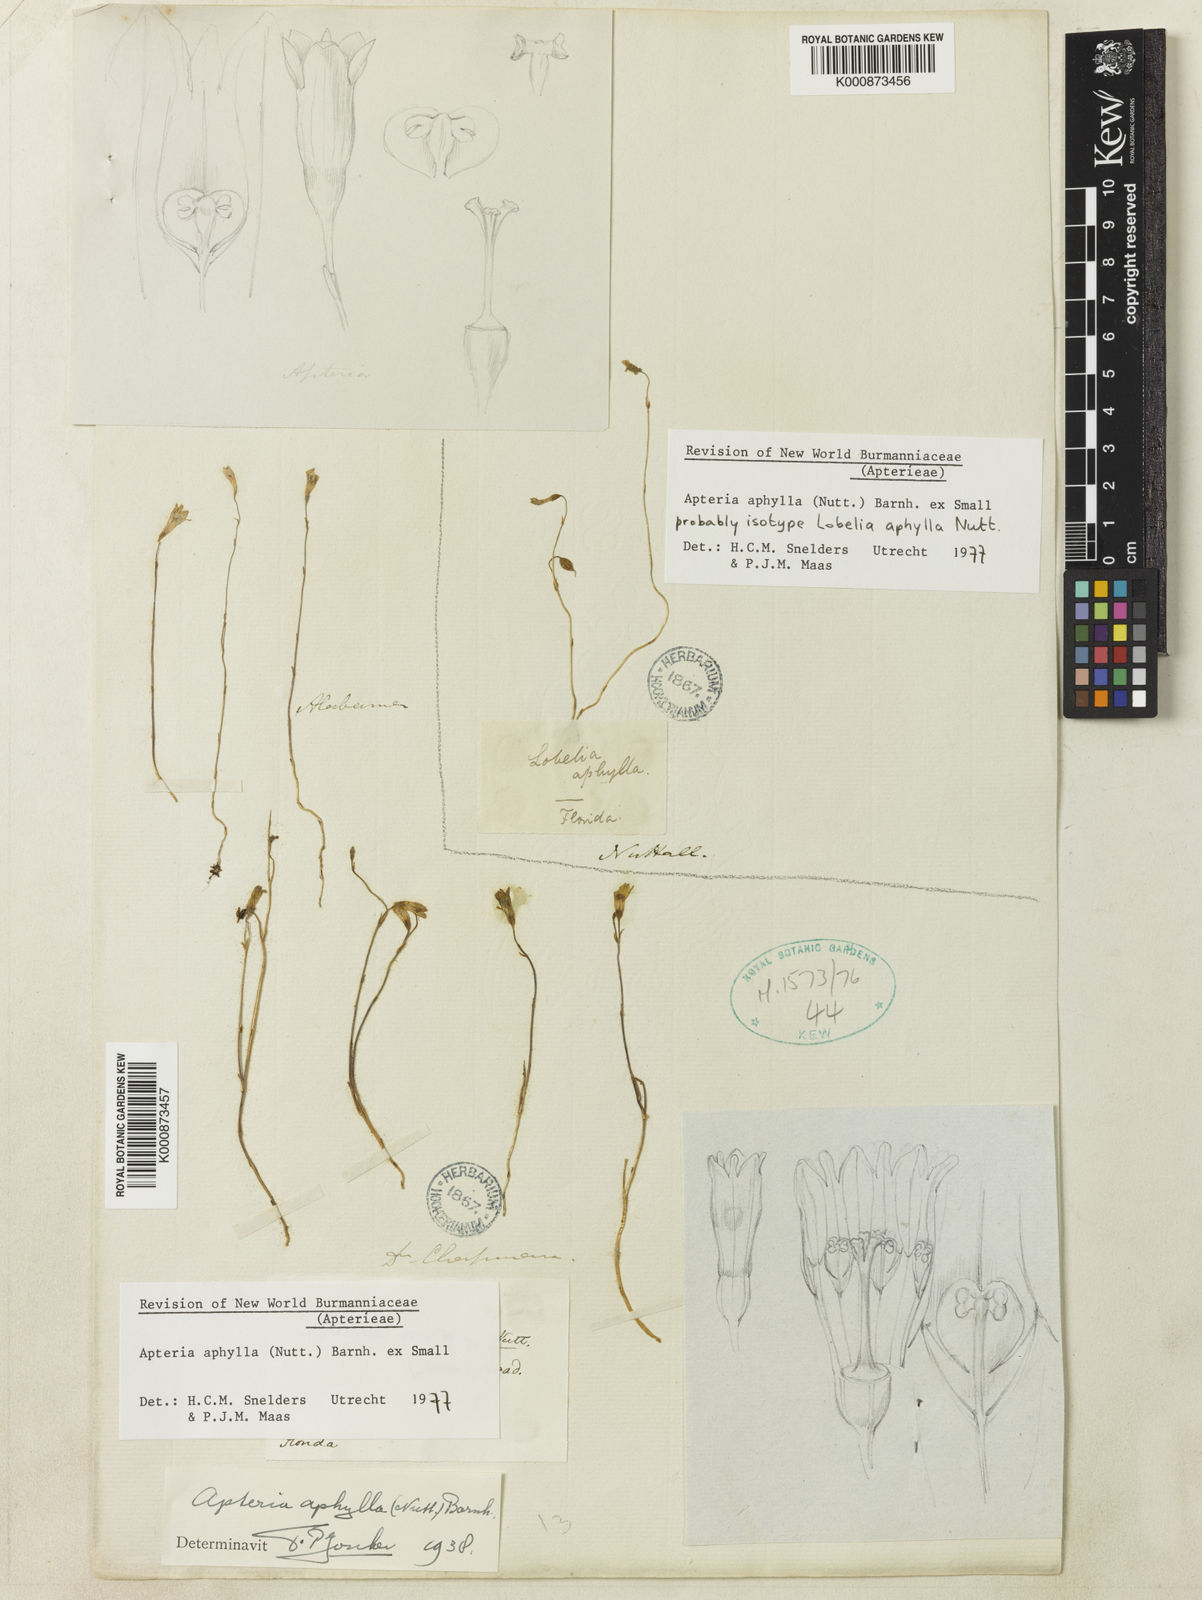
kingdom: Plantae
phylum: Tracheophyta
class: Liliopsida
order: Dioscoreales
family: Burmanniaceae
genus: Apteria
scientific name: Apteria aphylla
